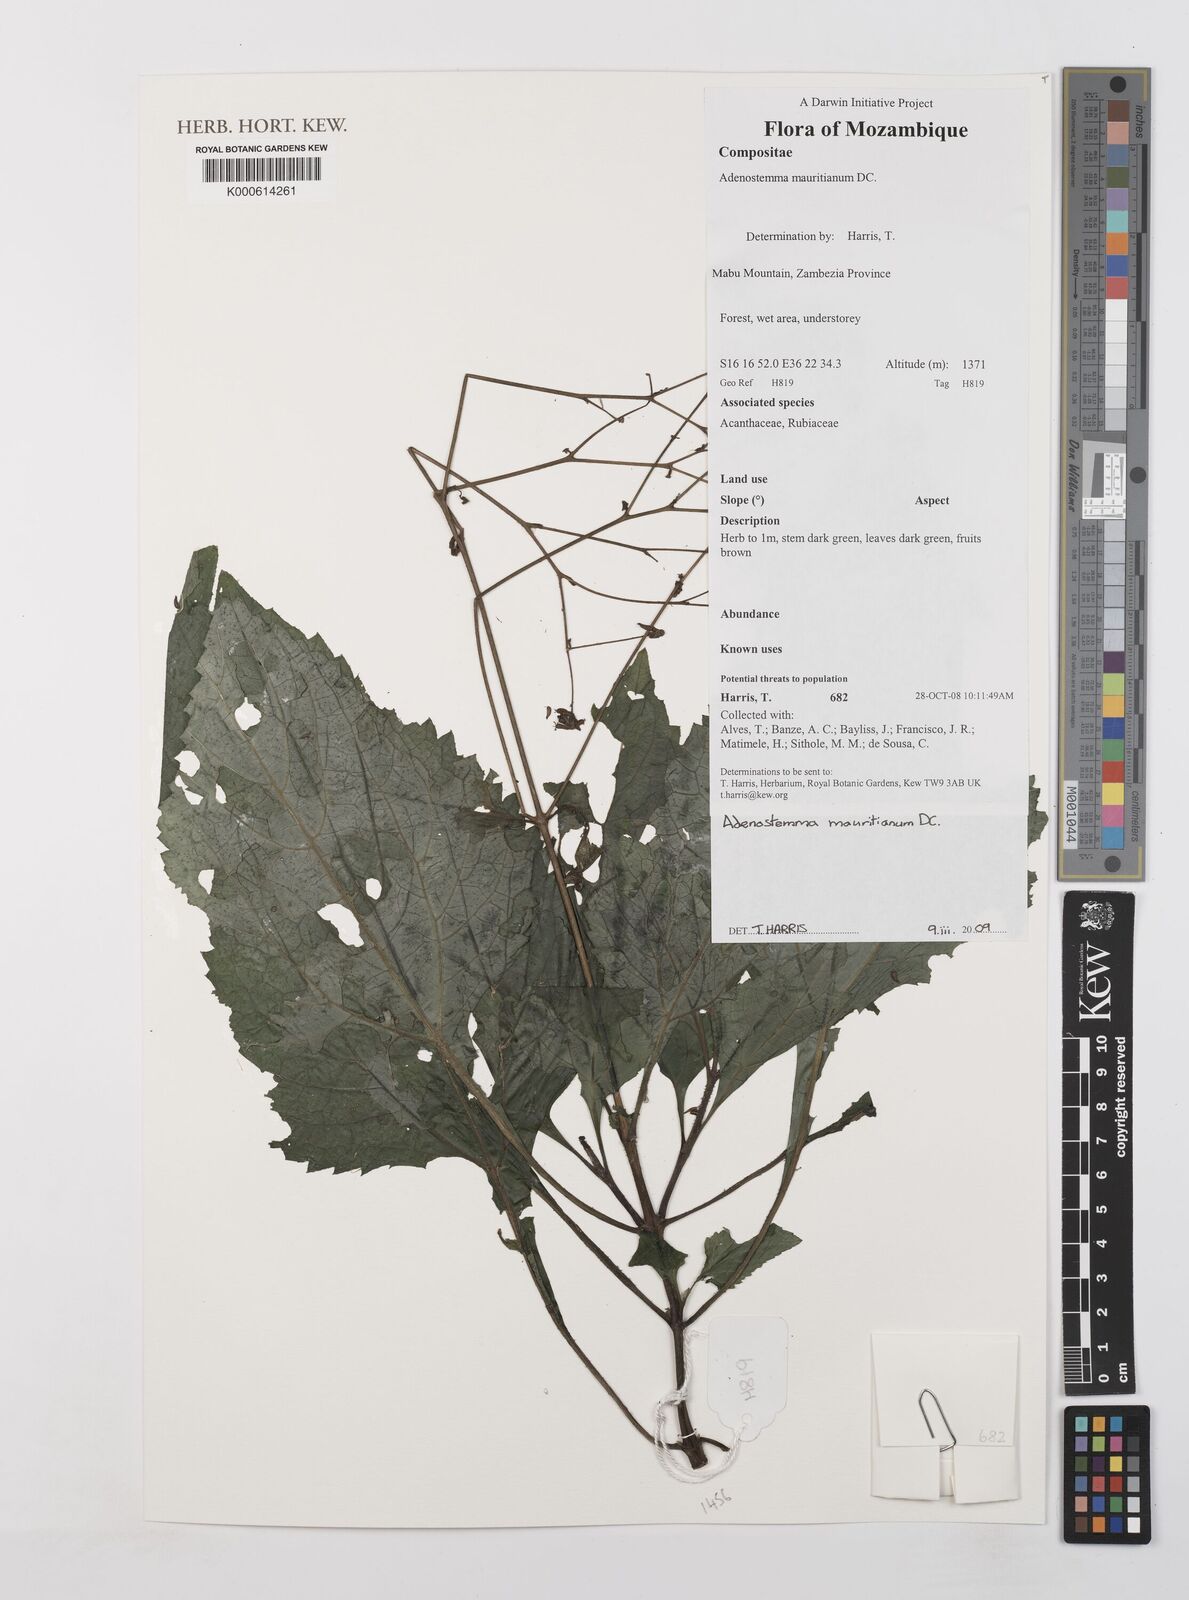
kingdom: Plantae
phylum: Tracheophyta
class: Magnoliopsida
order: Asterales
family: Asteraceae
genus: Adenostemma
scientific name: Adenostemma mauritianum
